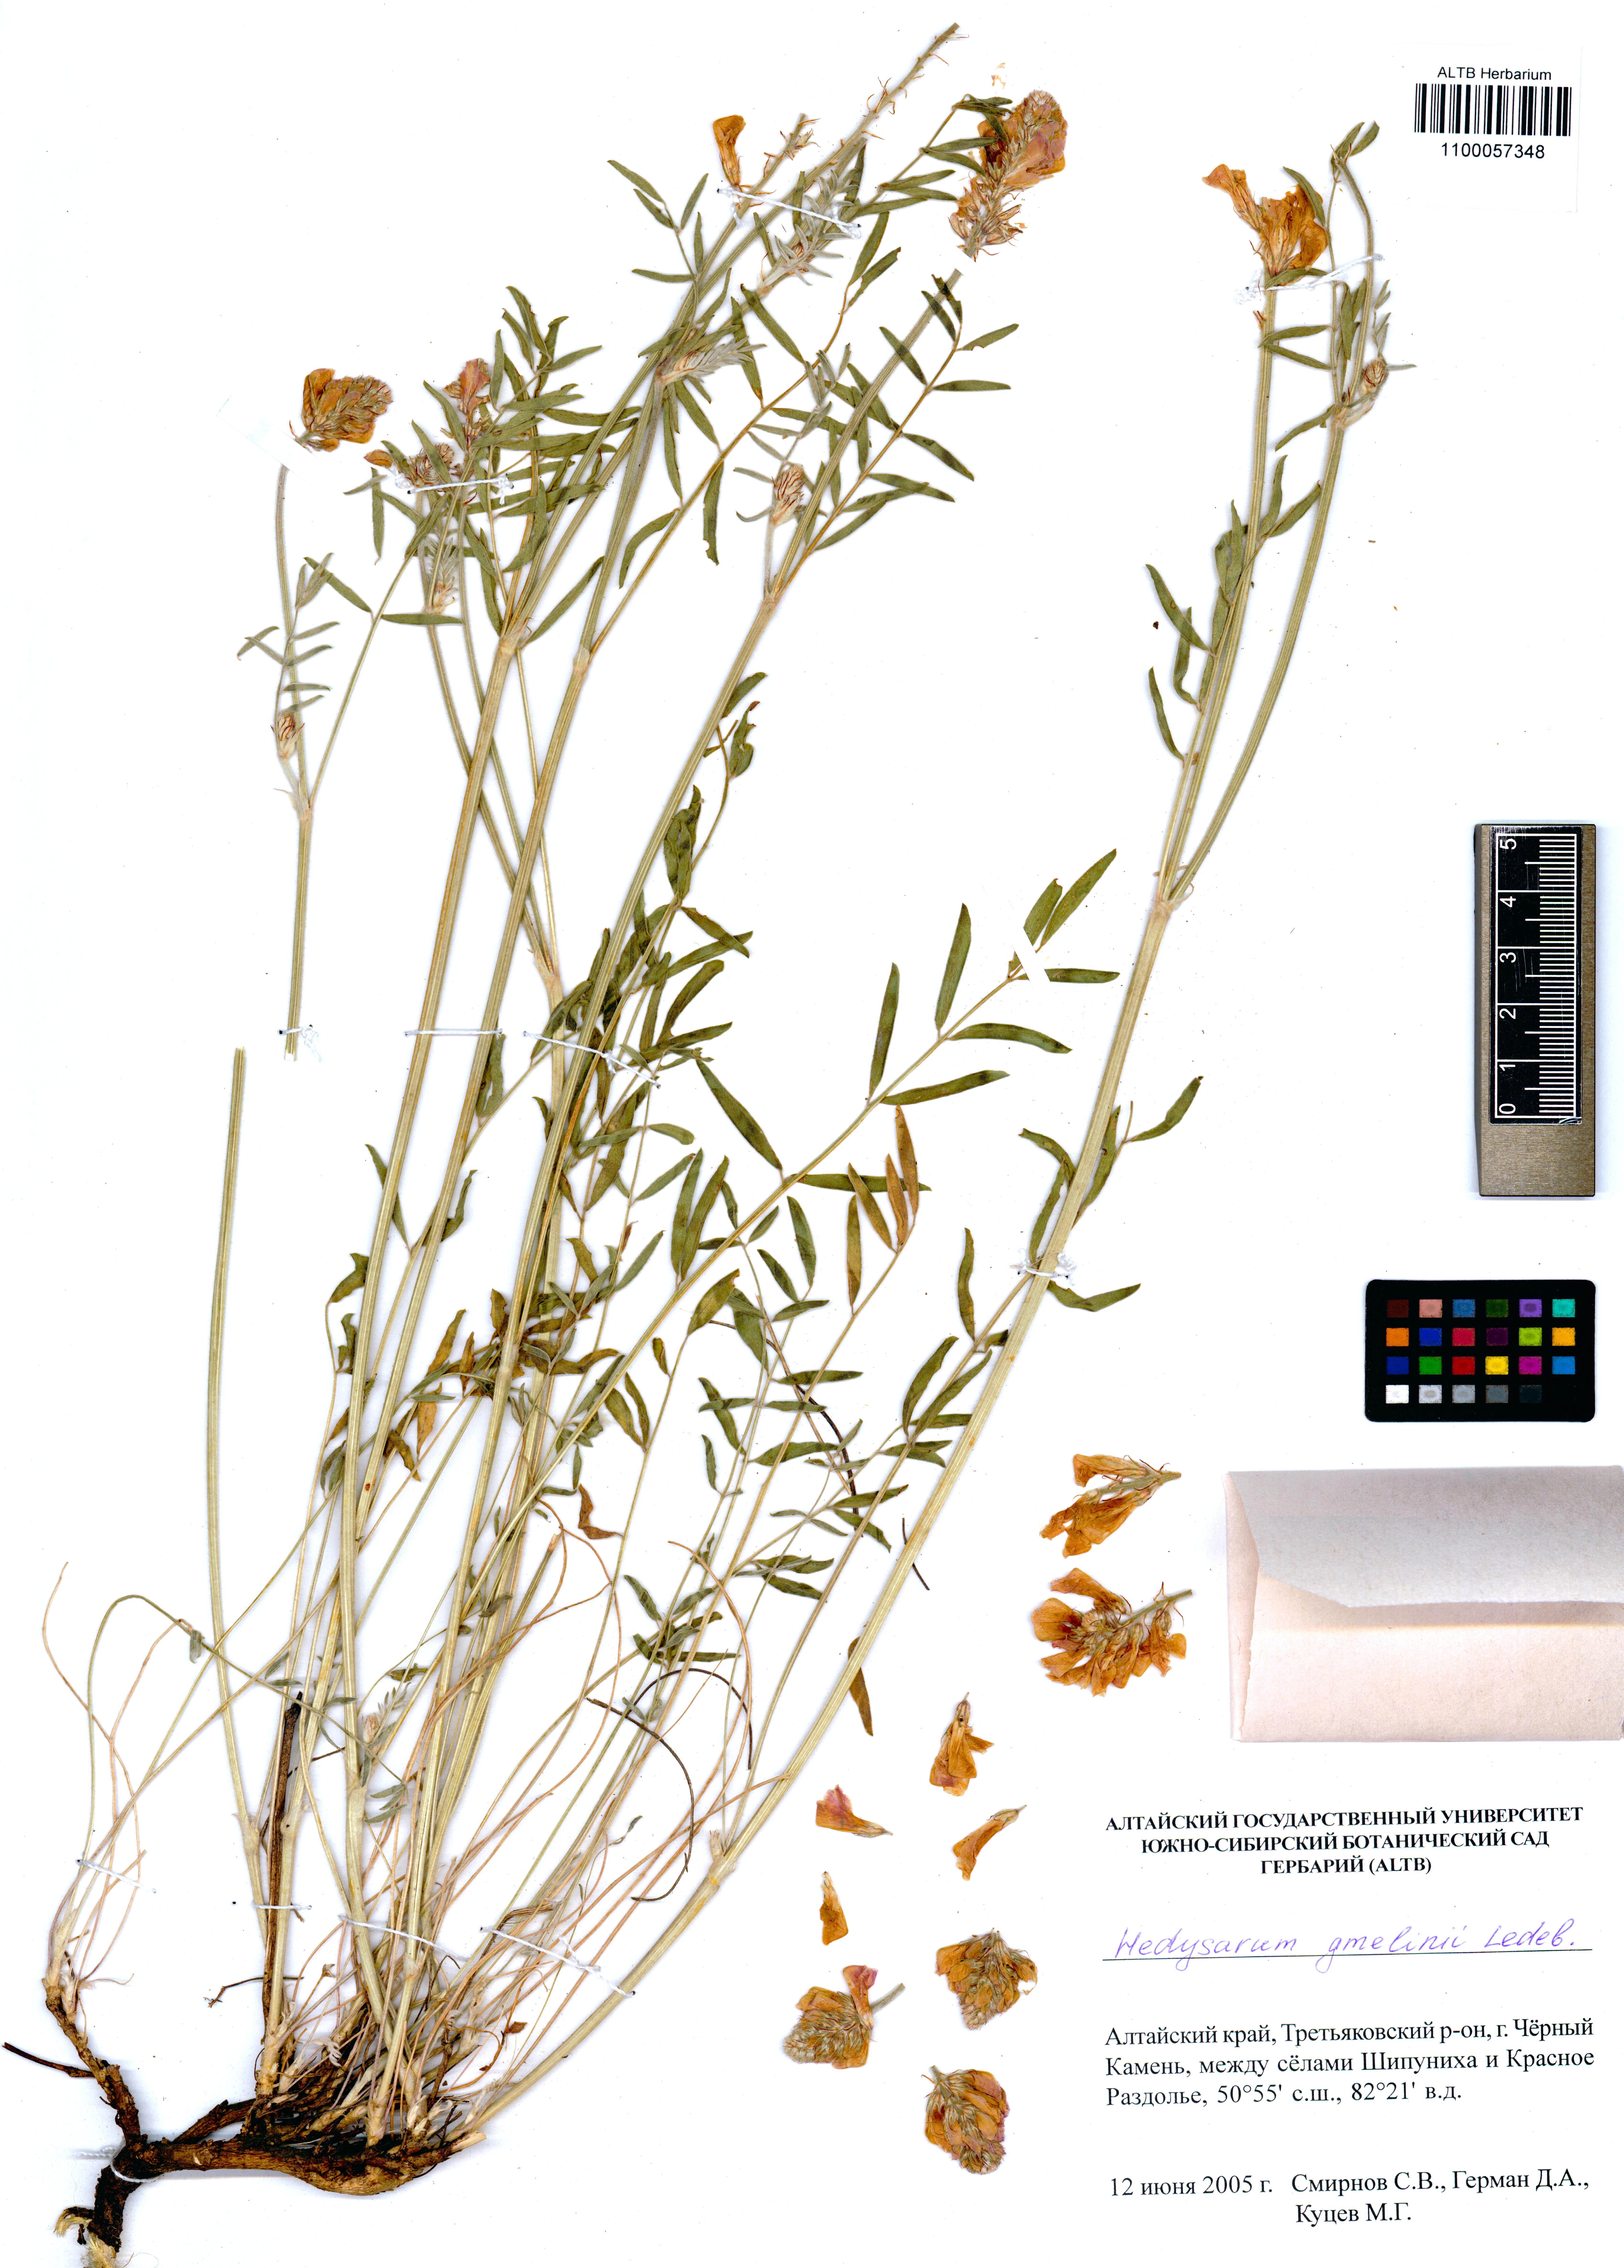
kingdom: Plantae
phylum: Tracheophyta
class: Magnoliopsida
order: Fabales
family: Fabaceae
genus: Hedysarum
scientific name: Hedysarum gmelinii
